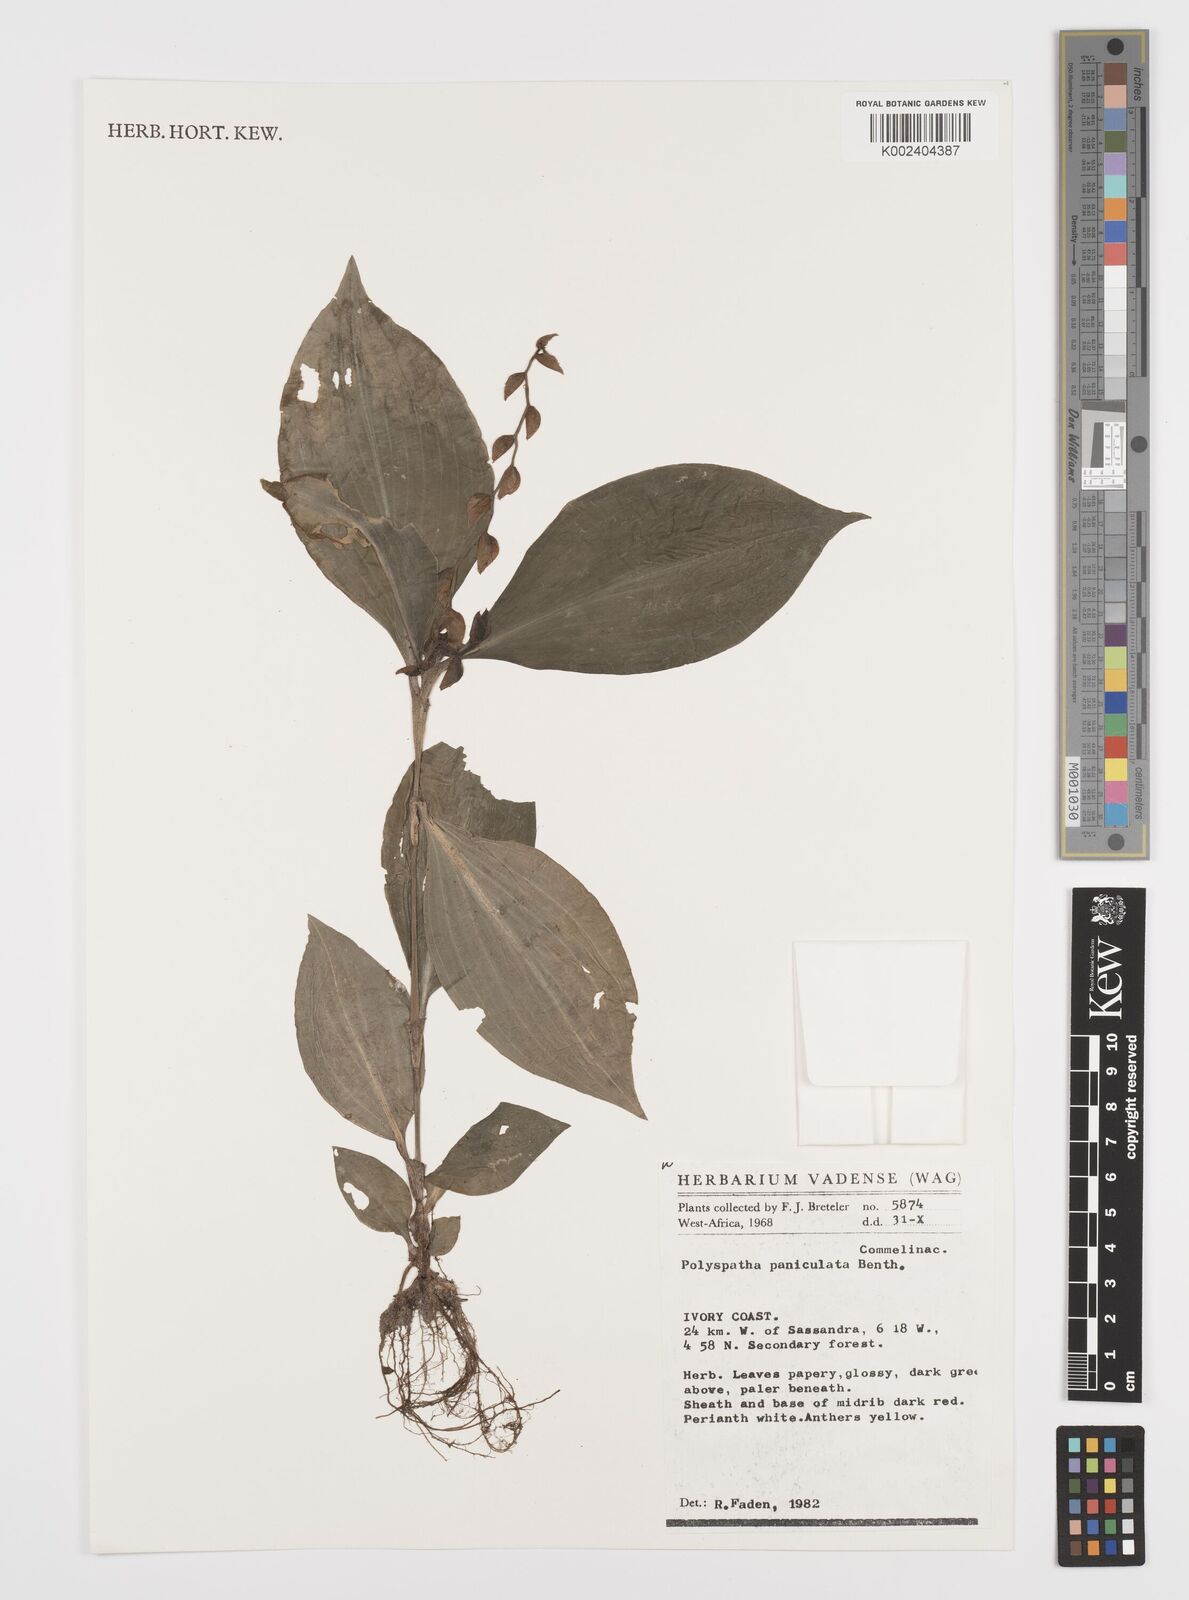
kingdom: Plantae
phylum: Tracheophyta
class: Liliopsida
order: Commelinales
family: Commelinaceae
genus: Polyspatha
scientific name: Polyspatha paniculata
